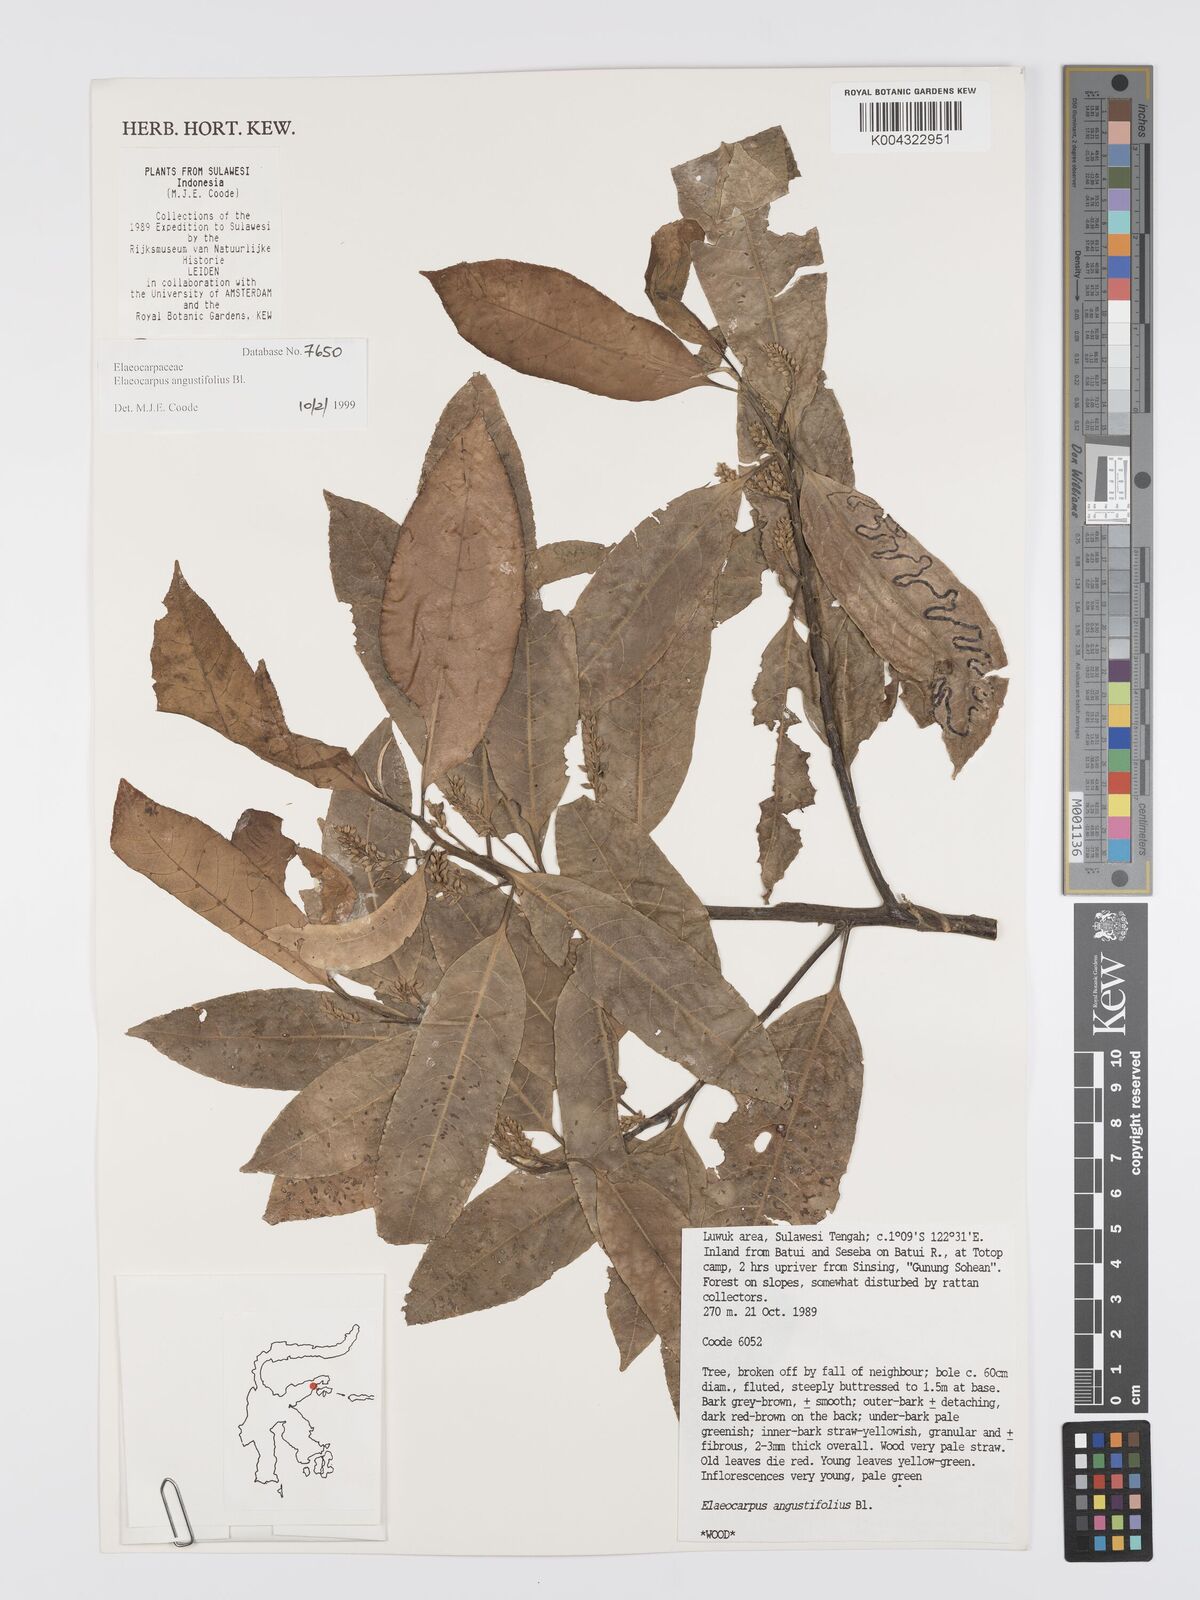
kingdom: Plantae
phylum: Tracheophyta
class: Magnoliopsida
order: Oxalidales
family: Elaeocarpaceae
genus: Elaeocarpus
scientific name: Elaeocarpus
